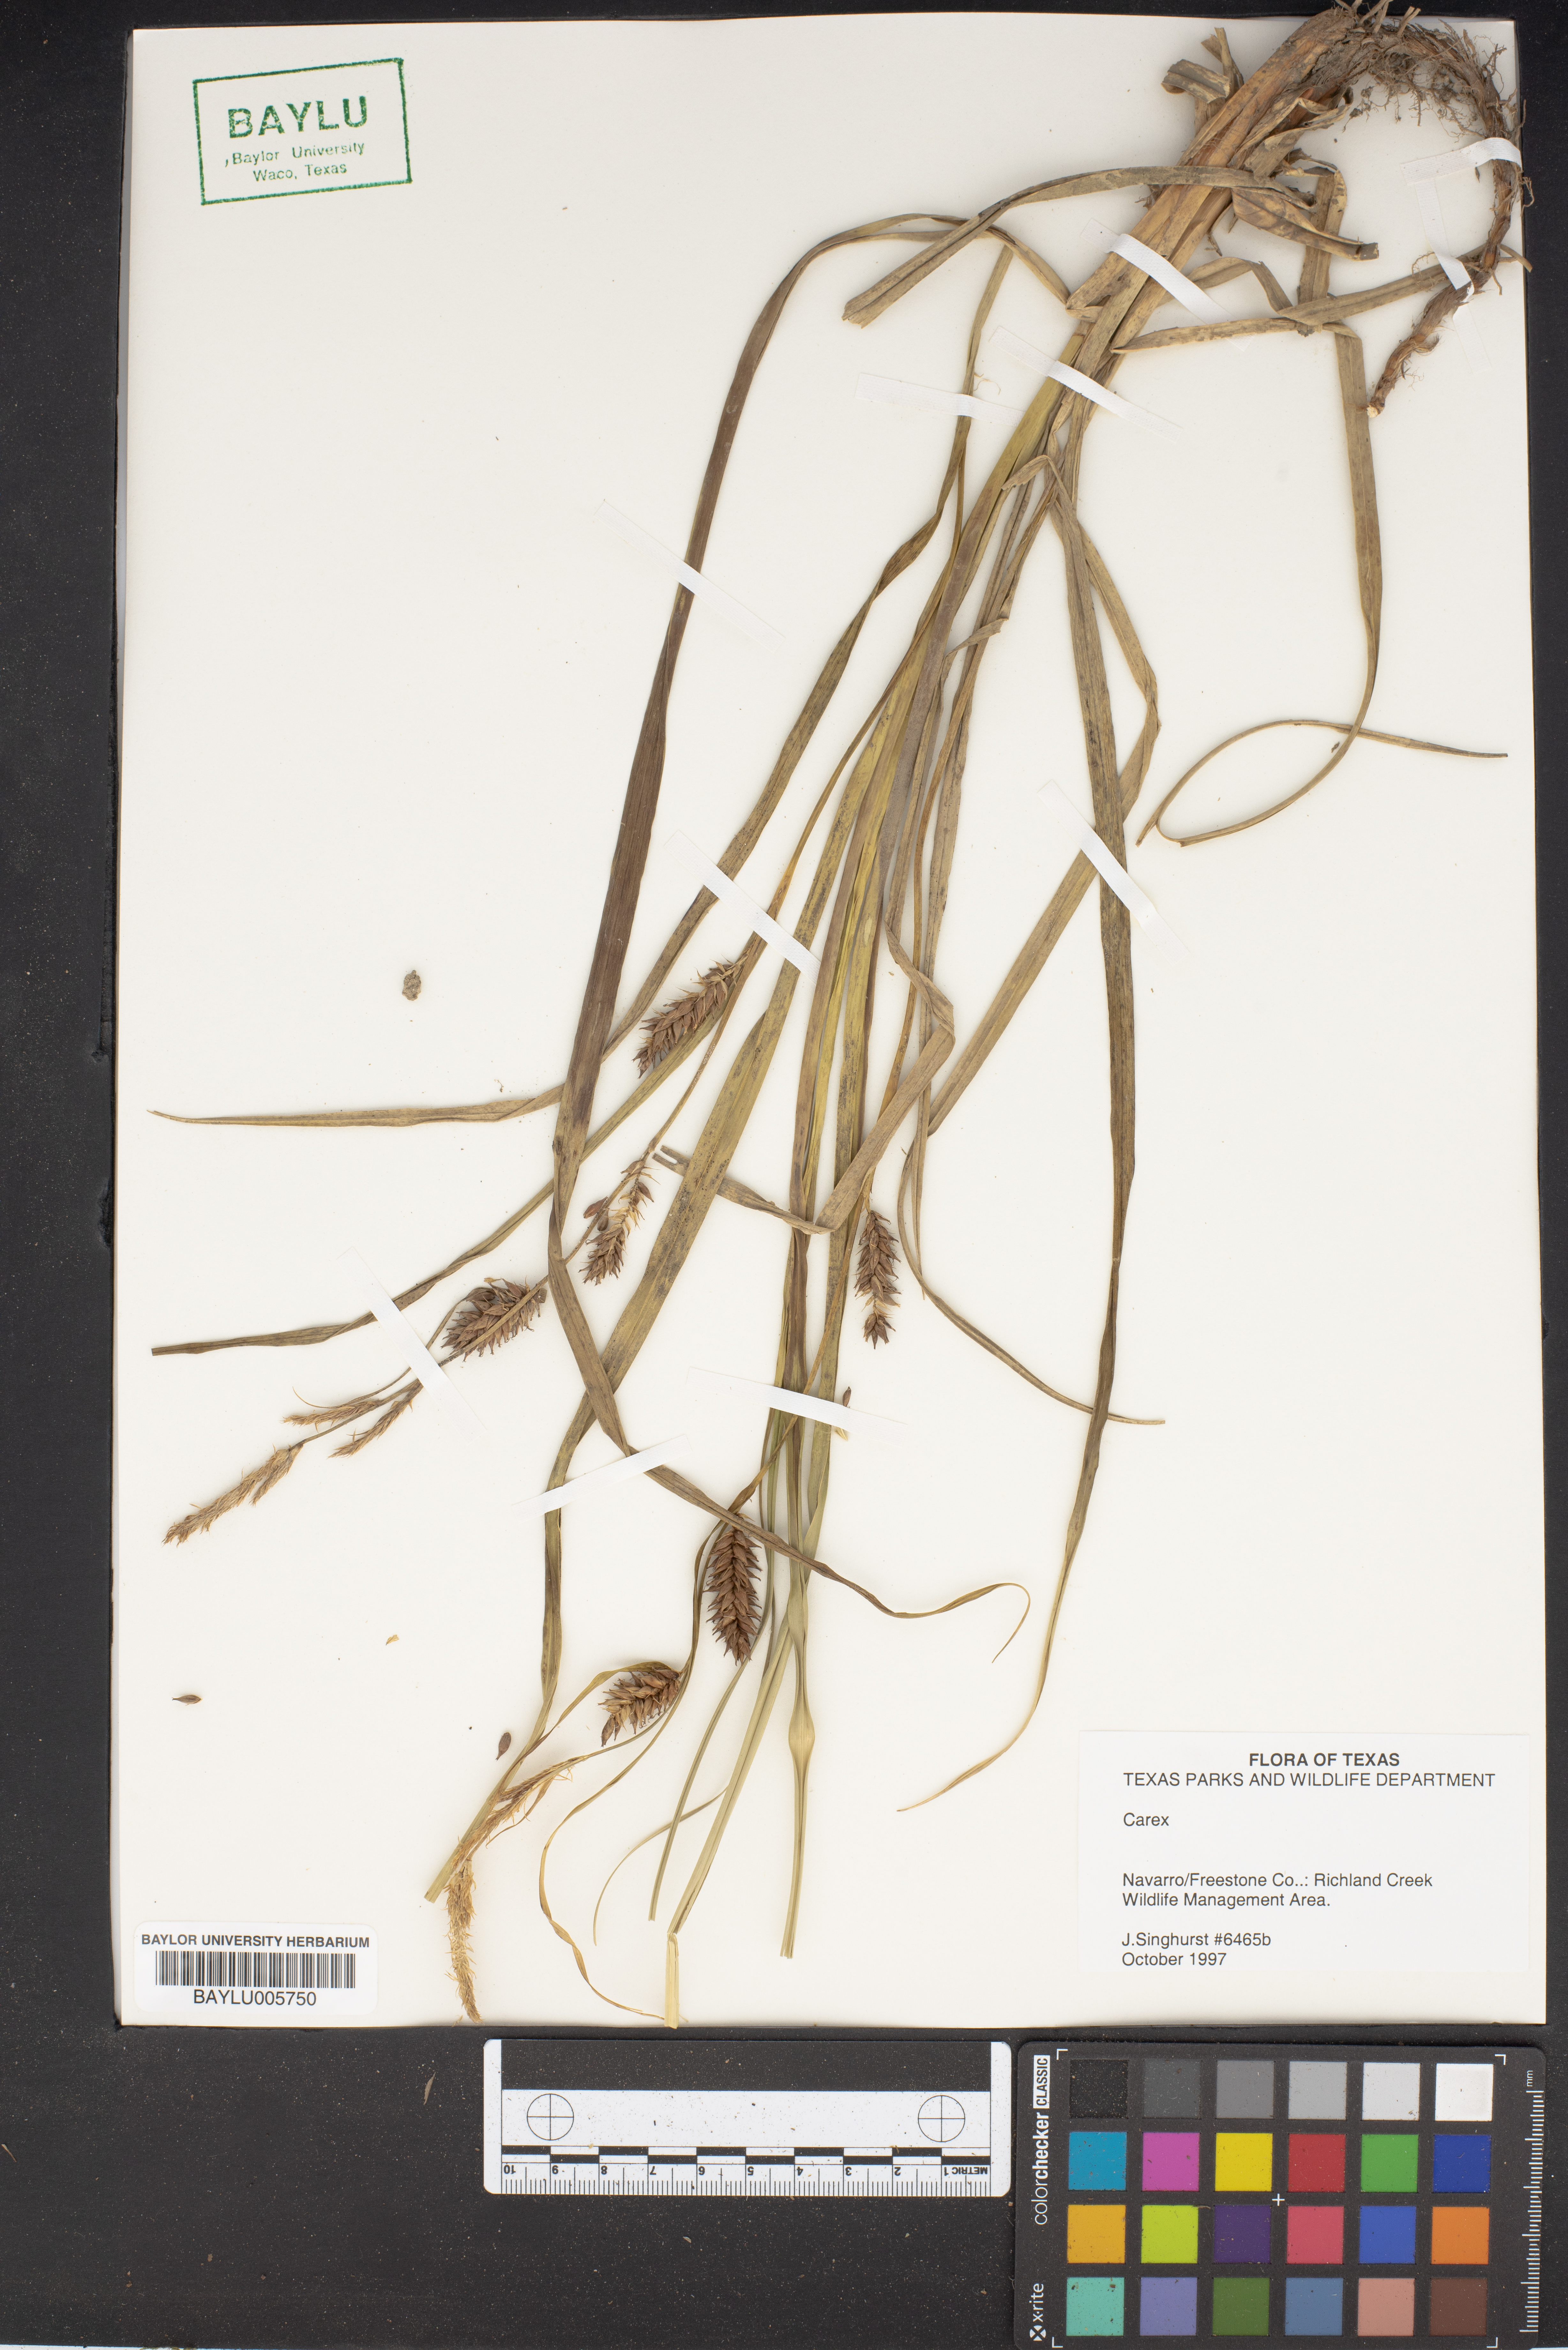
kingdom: Plantae
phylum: Tracheophyta
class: Liliopsida
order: Poales
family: Cyperaceae
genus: Carex
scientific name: Carex
